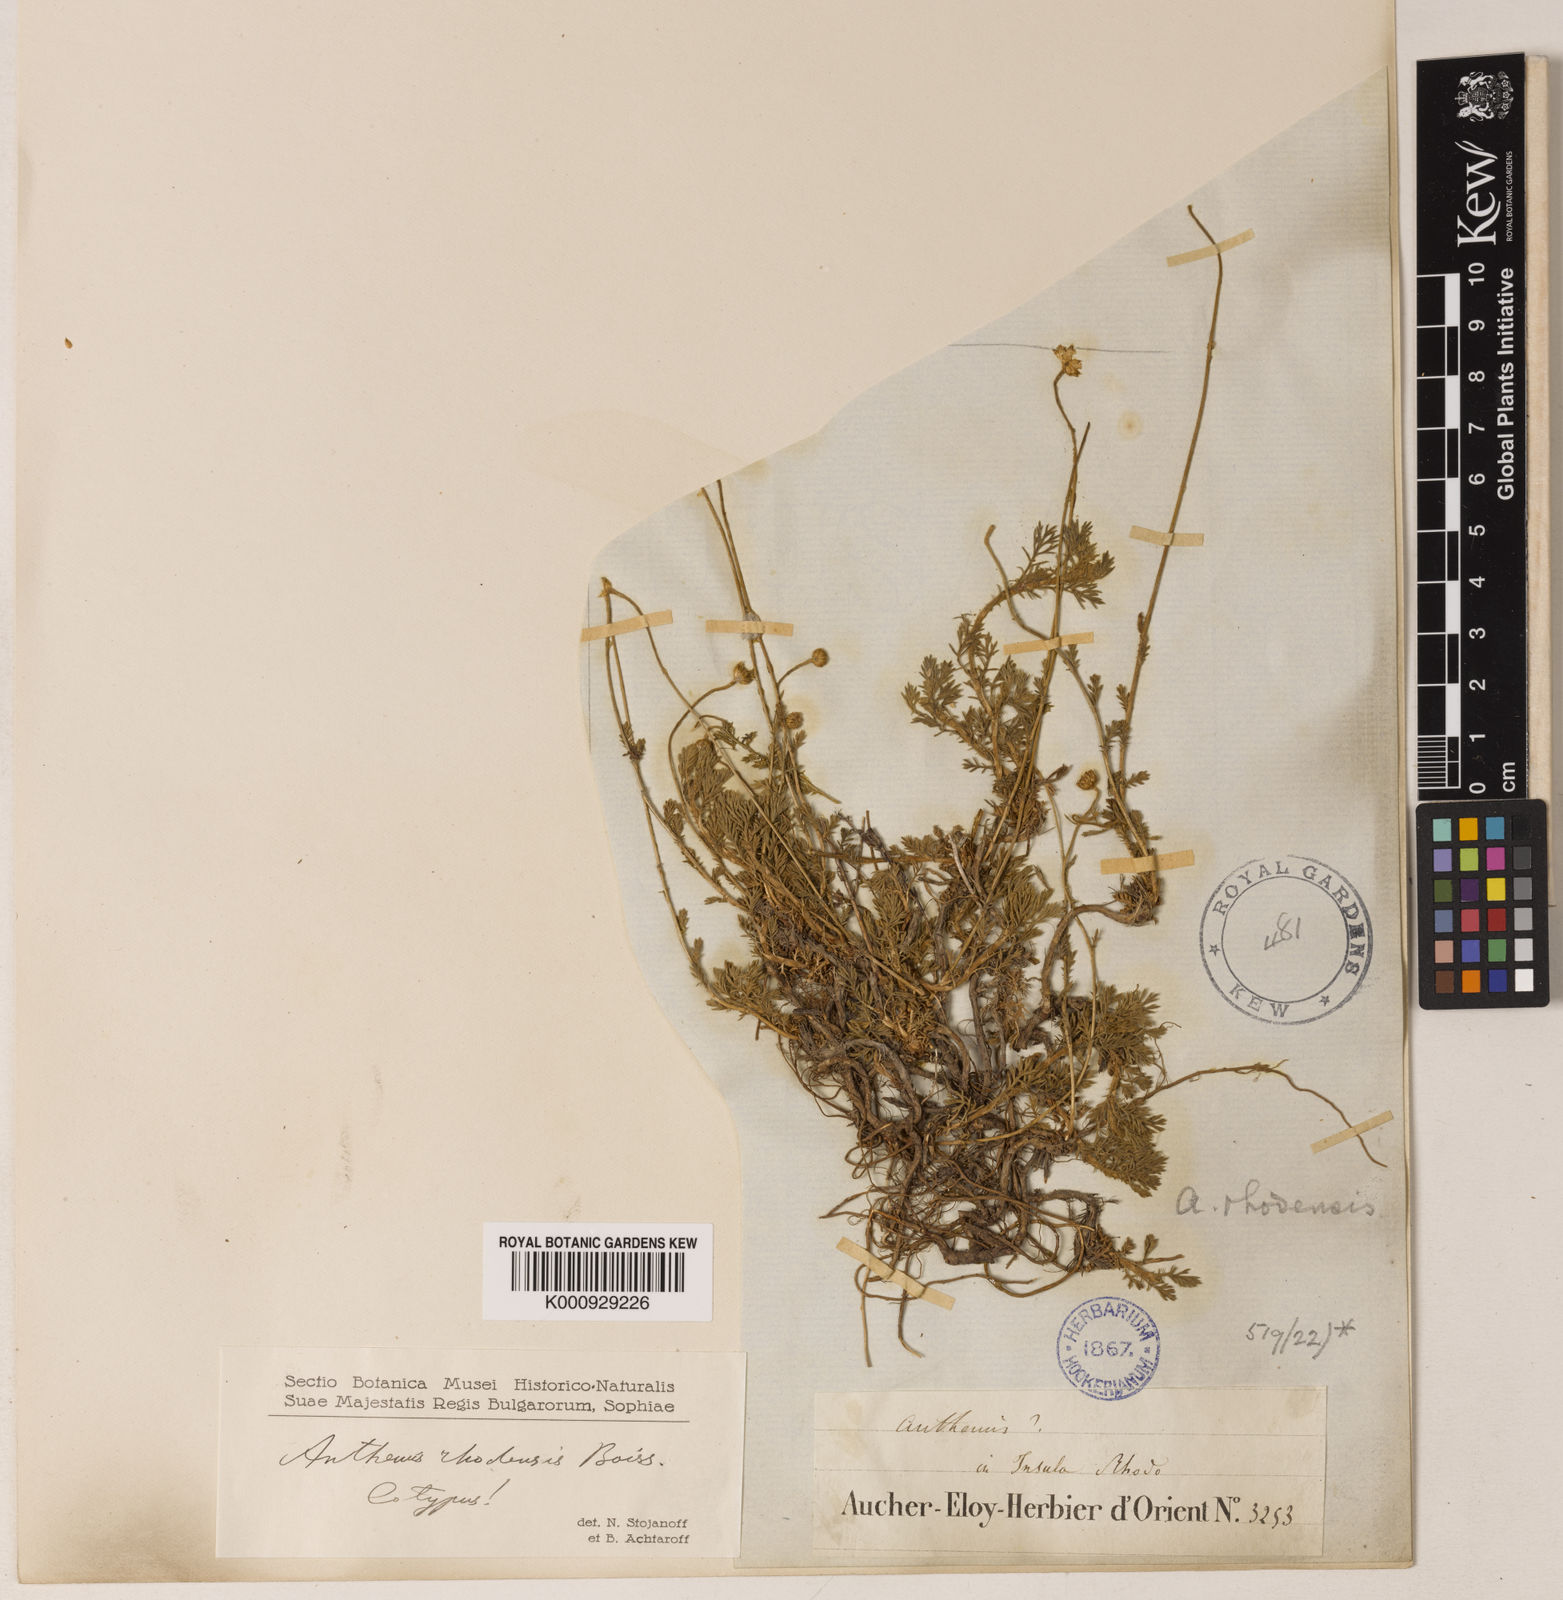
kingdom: Plantae
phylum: Tracheophyta
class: Magnoliopsida
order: Asterales
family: Asteraceae
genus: Anthemis
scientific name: Anthemis rhodensis
